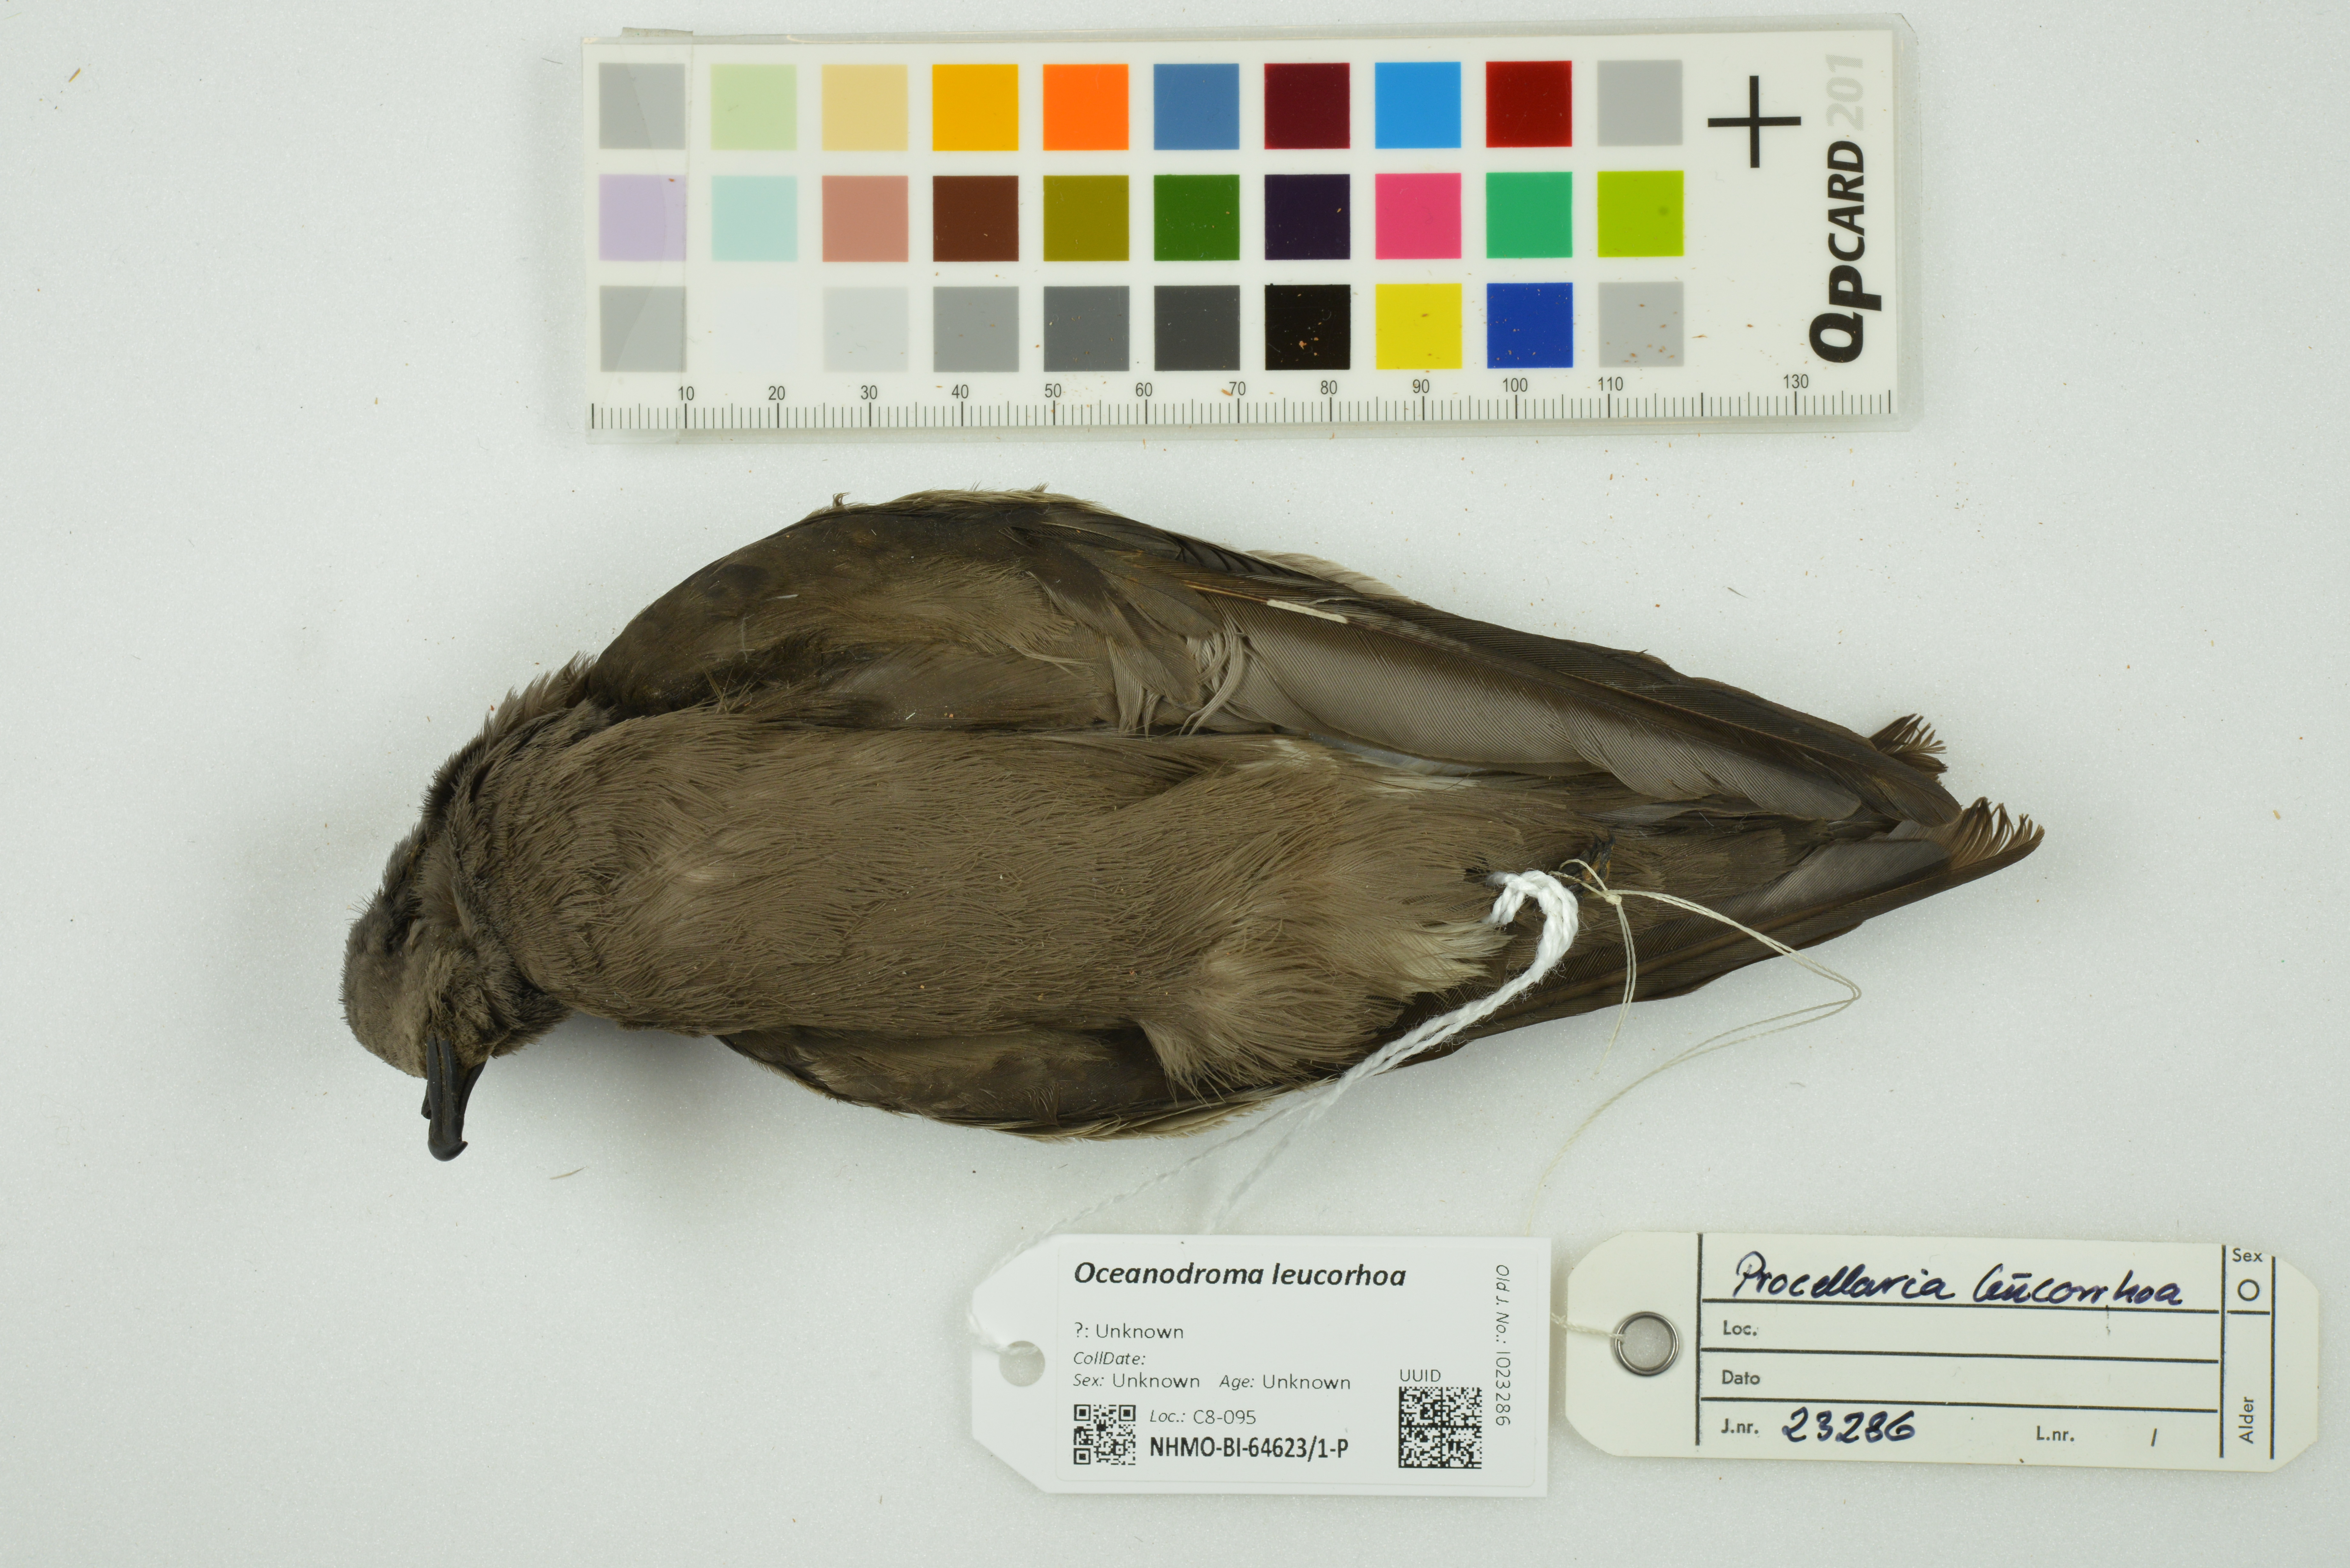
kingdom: Animalia
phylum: Chordata
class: Aves
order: Procellariiformes
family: Hydrobatidae
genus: Oceanodroma
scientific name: Oceanodroma leucorhoa
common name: Leach's storm-petrel
